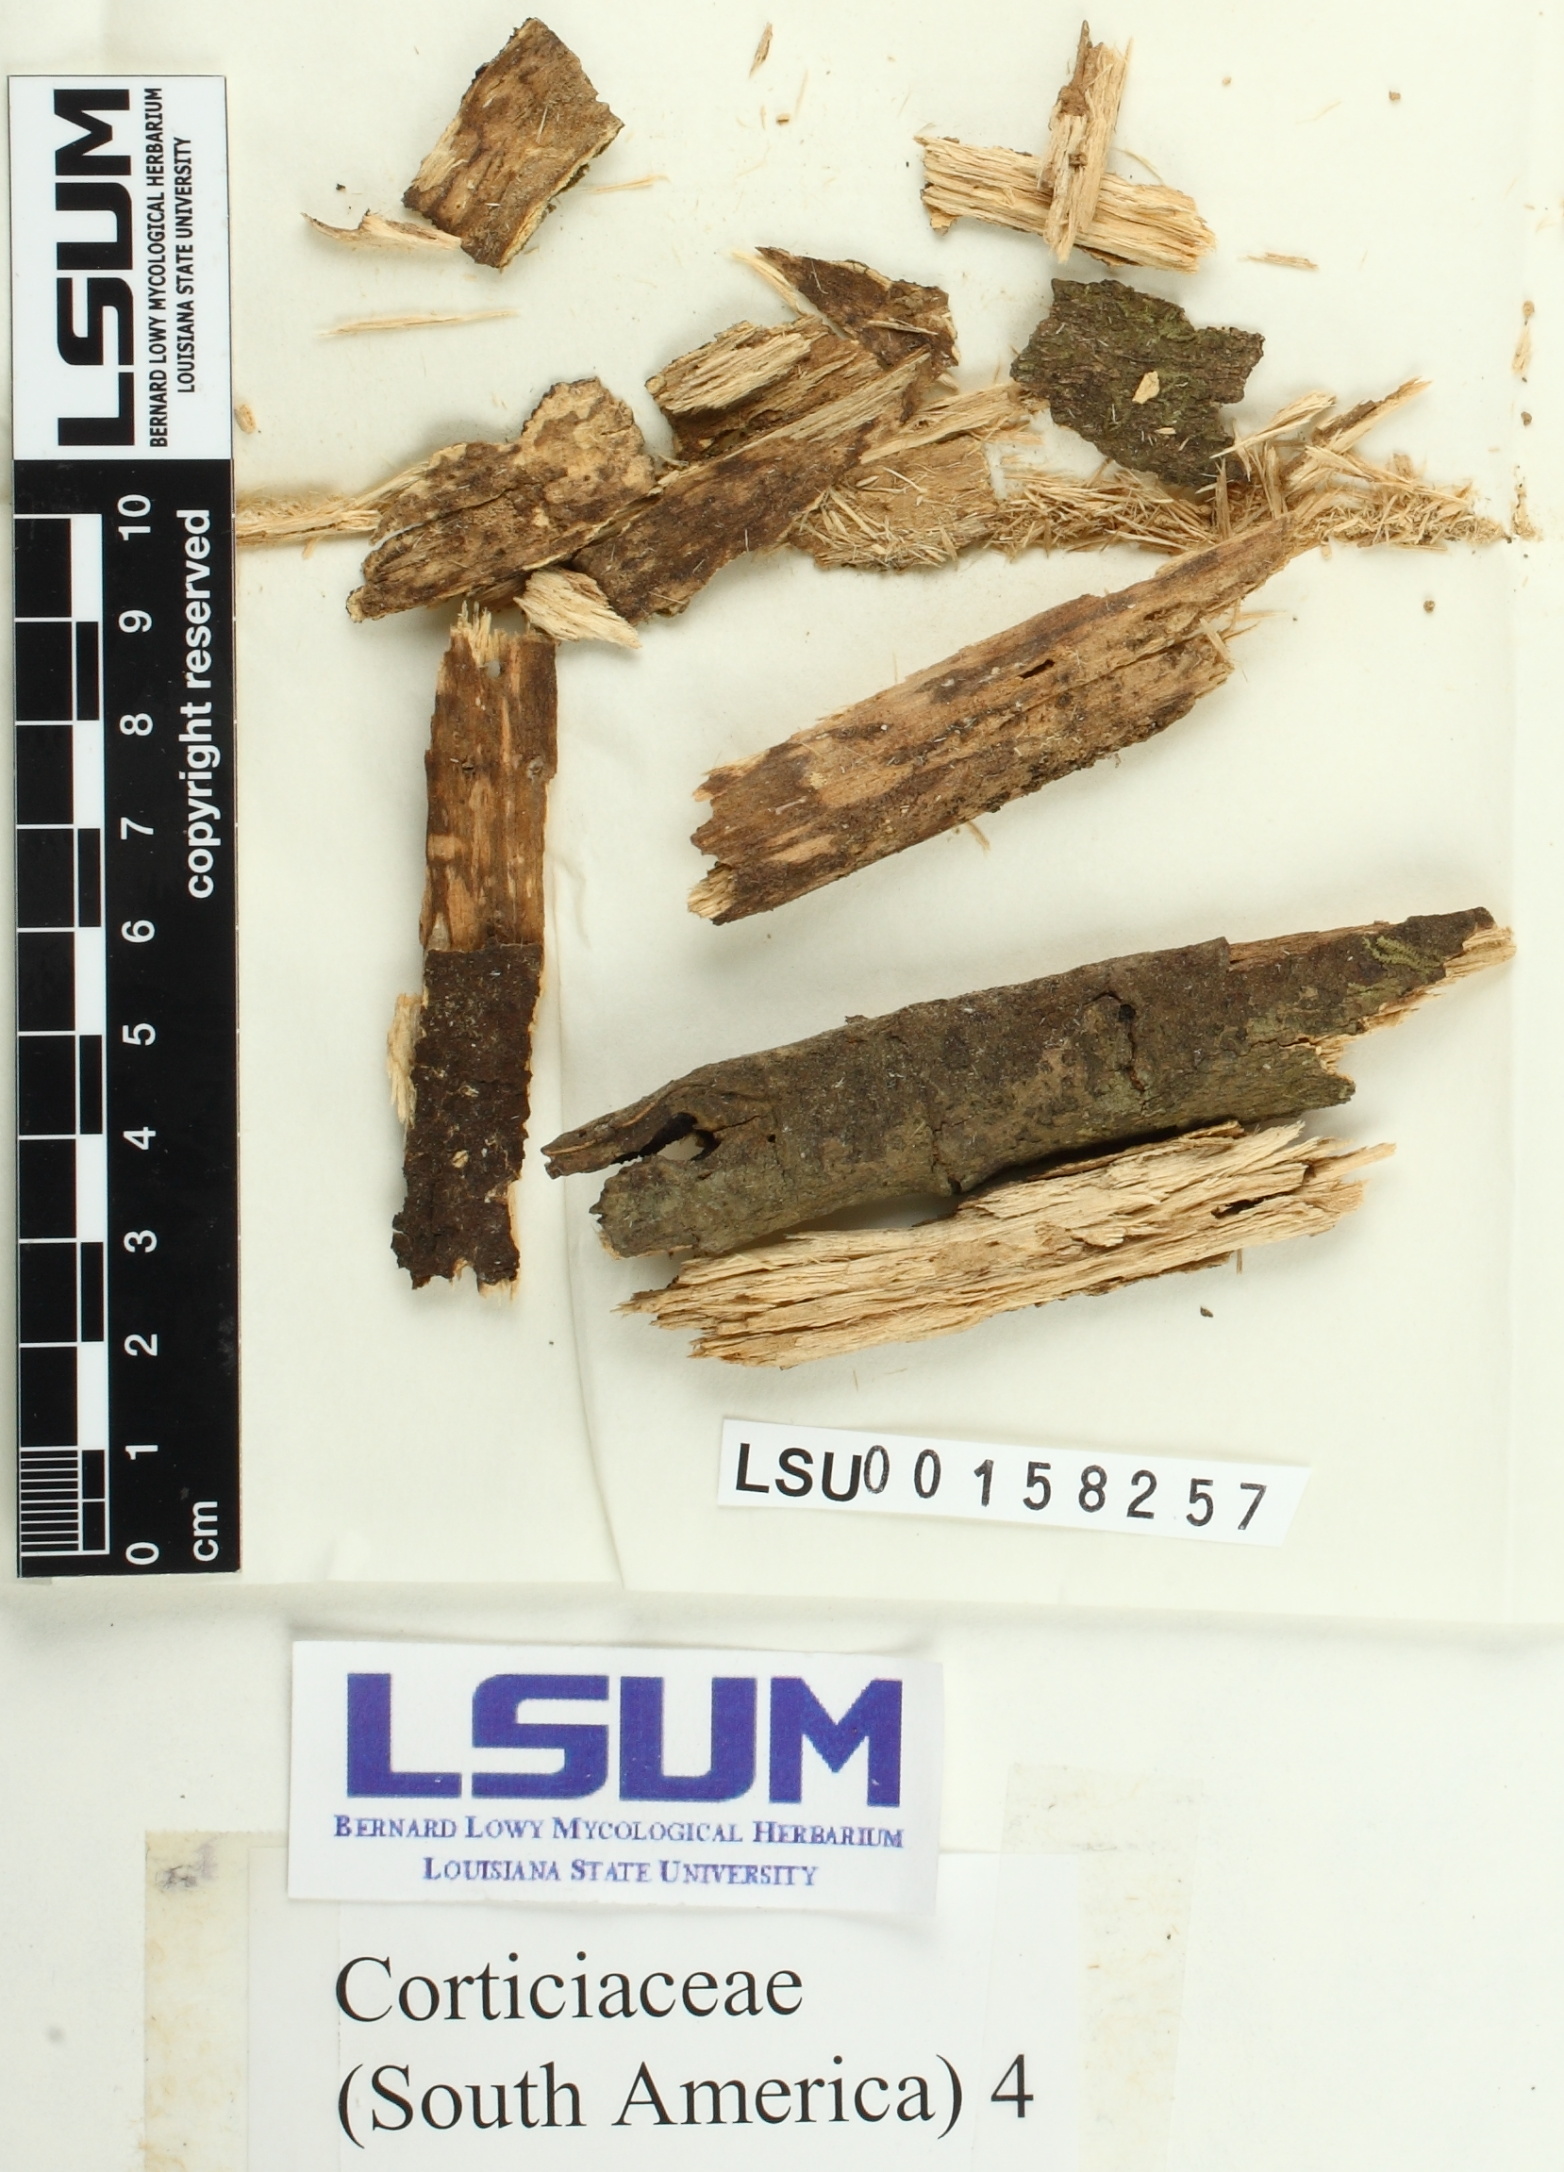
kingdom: Fungi
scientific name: Fungi
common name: Fungi
